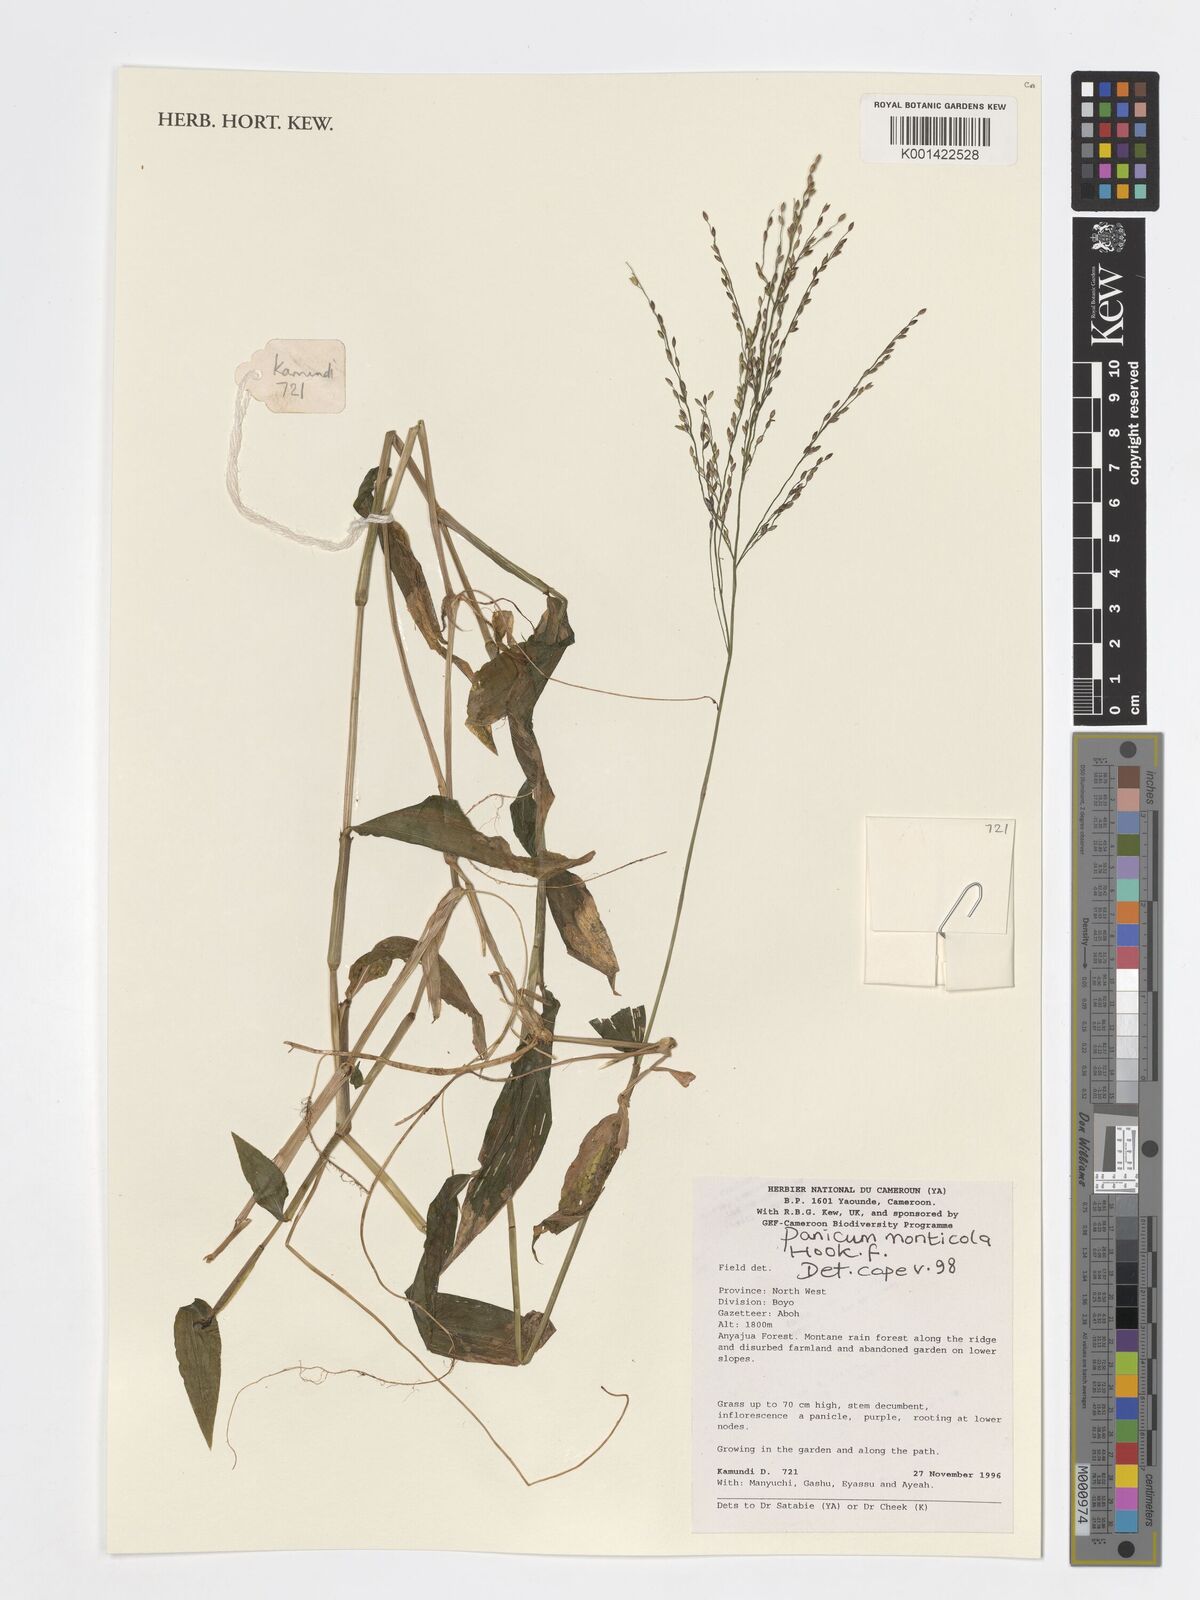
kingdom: Plantae
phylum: Tracheophyta
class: Liliopsida
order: Poales
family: Poaceae
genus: Panicum
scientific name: Panicum monticola
